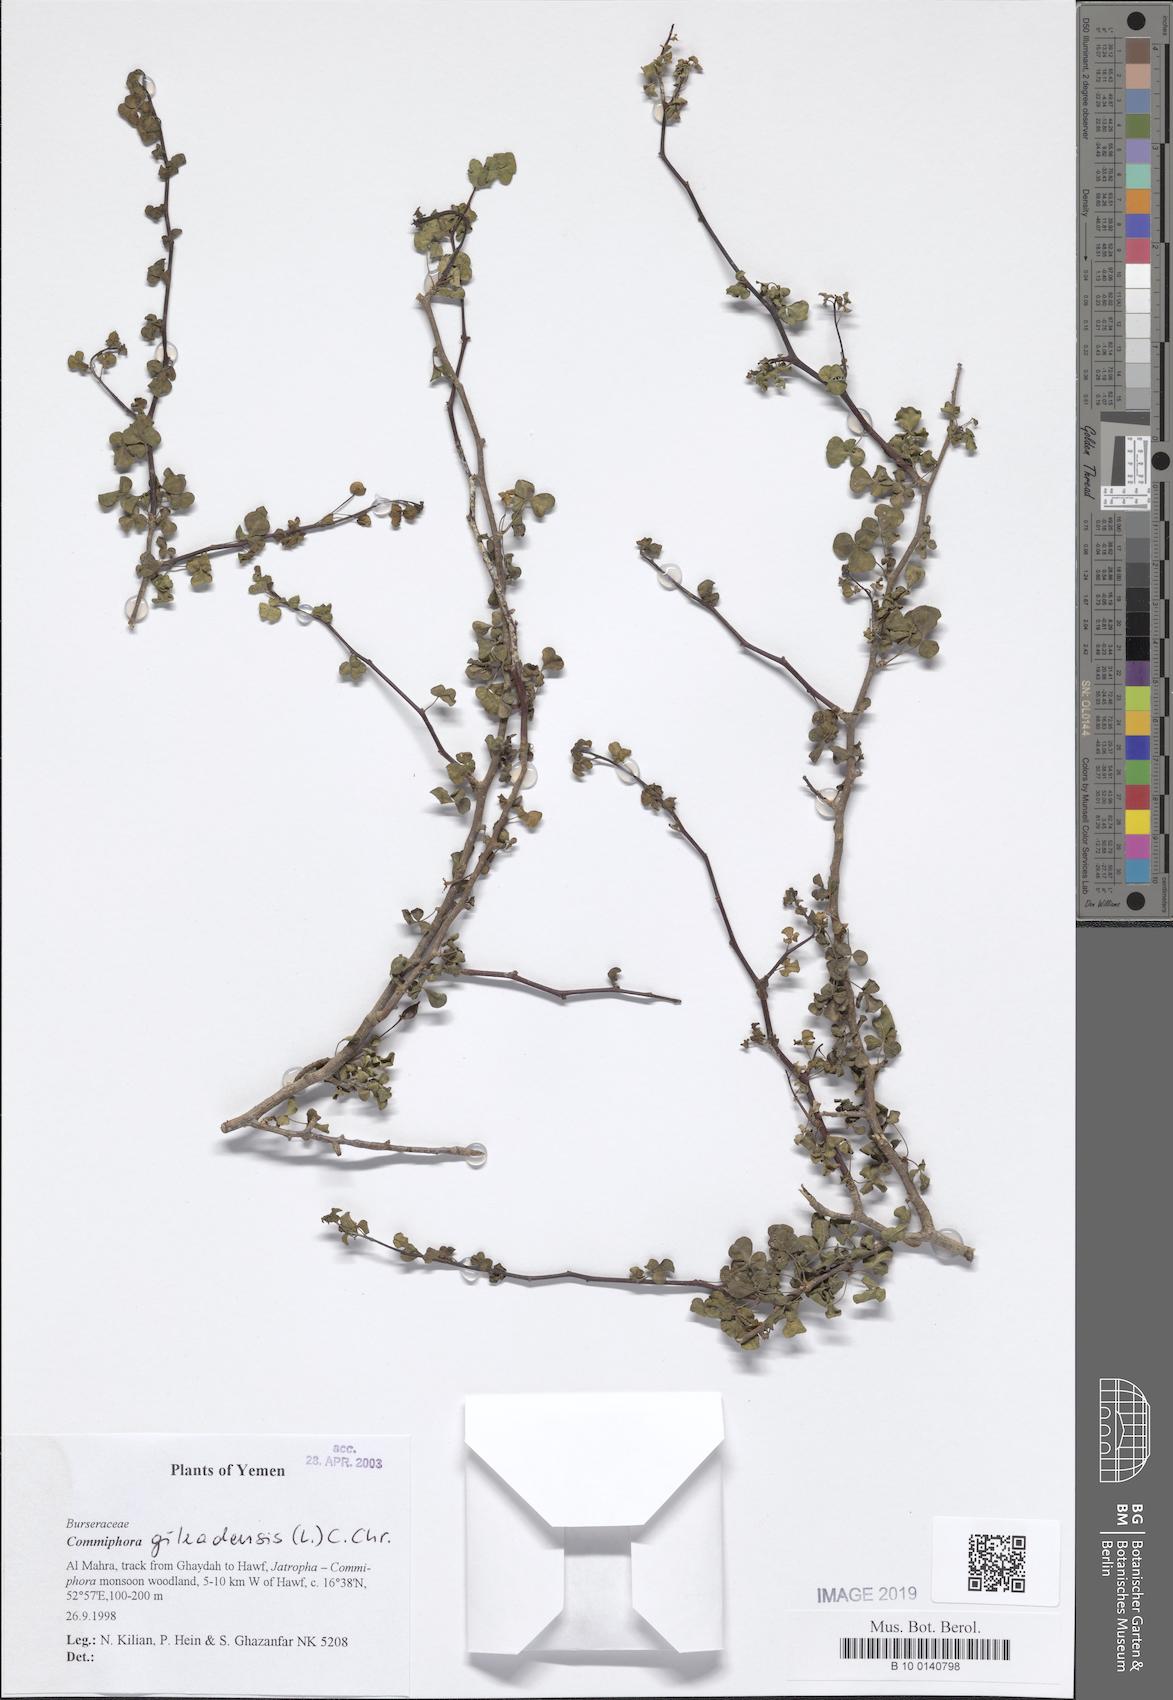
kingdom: Plantae
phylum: Tracheophyta
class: Magnoliopsida
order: Sapindales
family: Burseraceae
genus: Commiphora
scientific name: Commiphora gileadensis
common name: Balm-of-gilead
